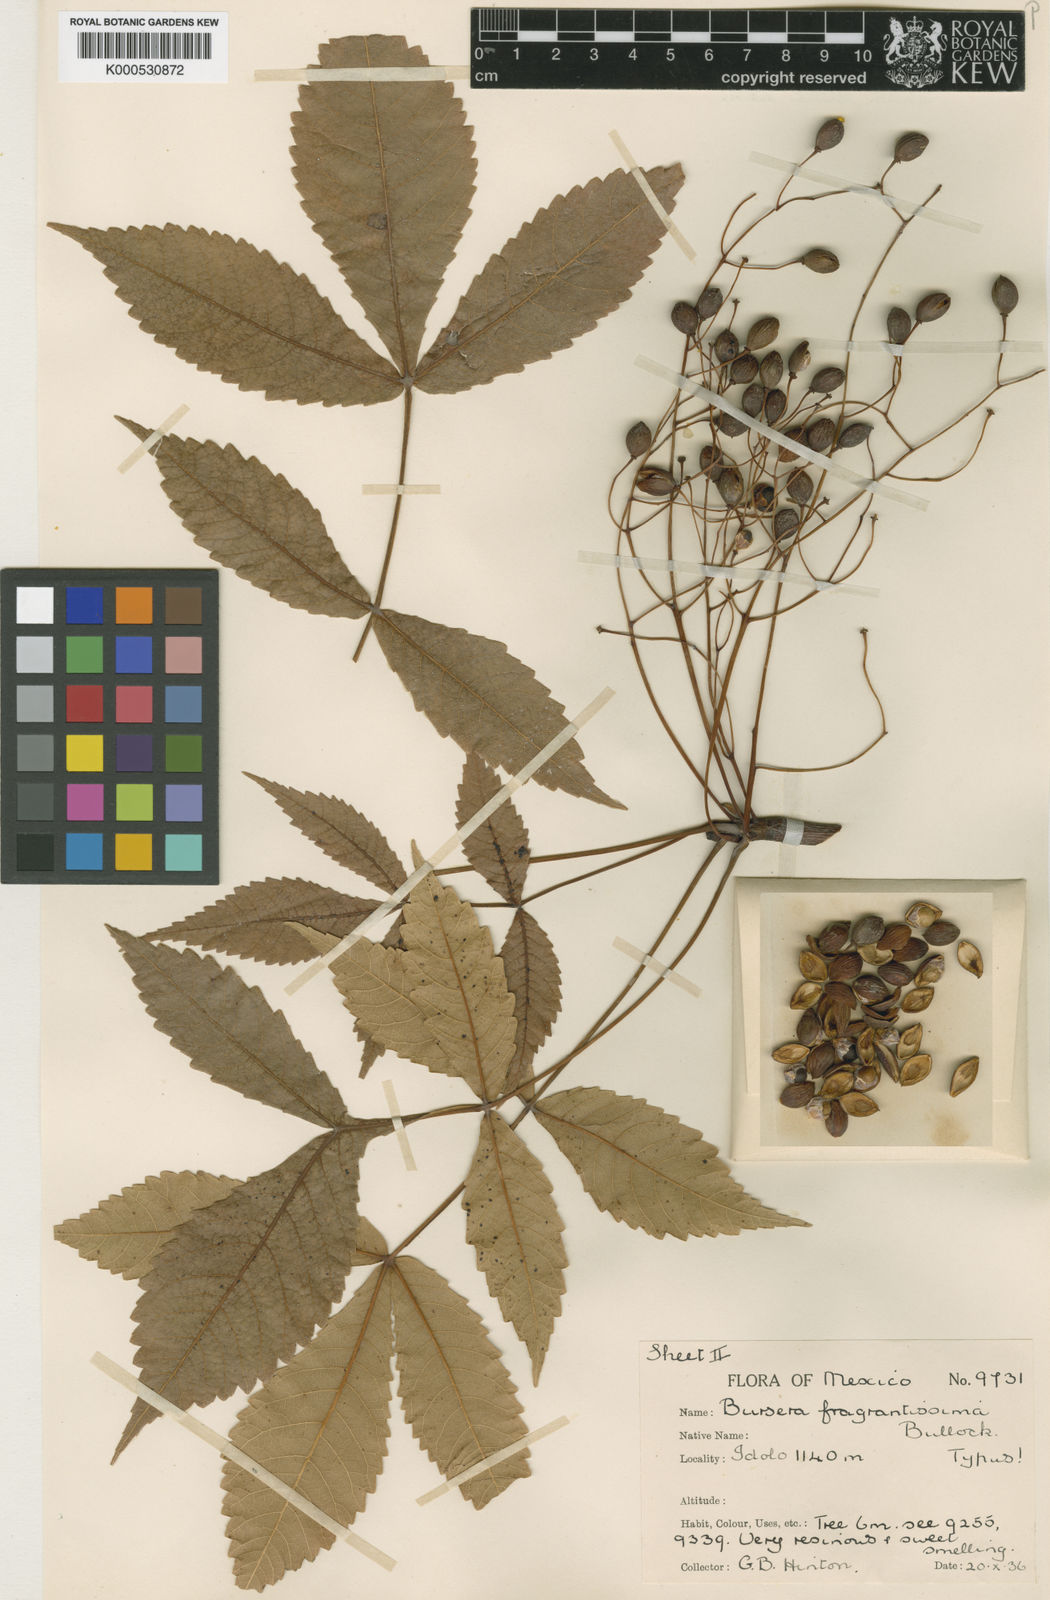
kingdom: Plantae
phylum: Tracheophyta
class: Magnoliopsida
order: Sapindales
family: Burseraceae
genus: Bursera
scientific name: Bursera fragrantissima
